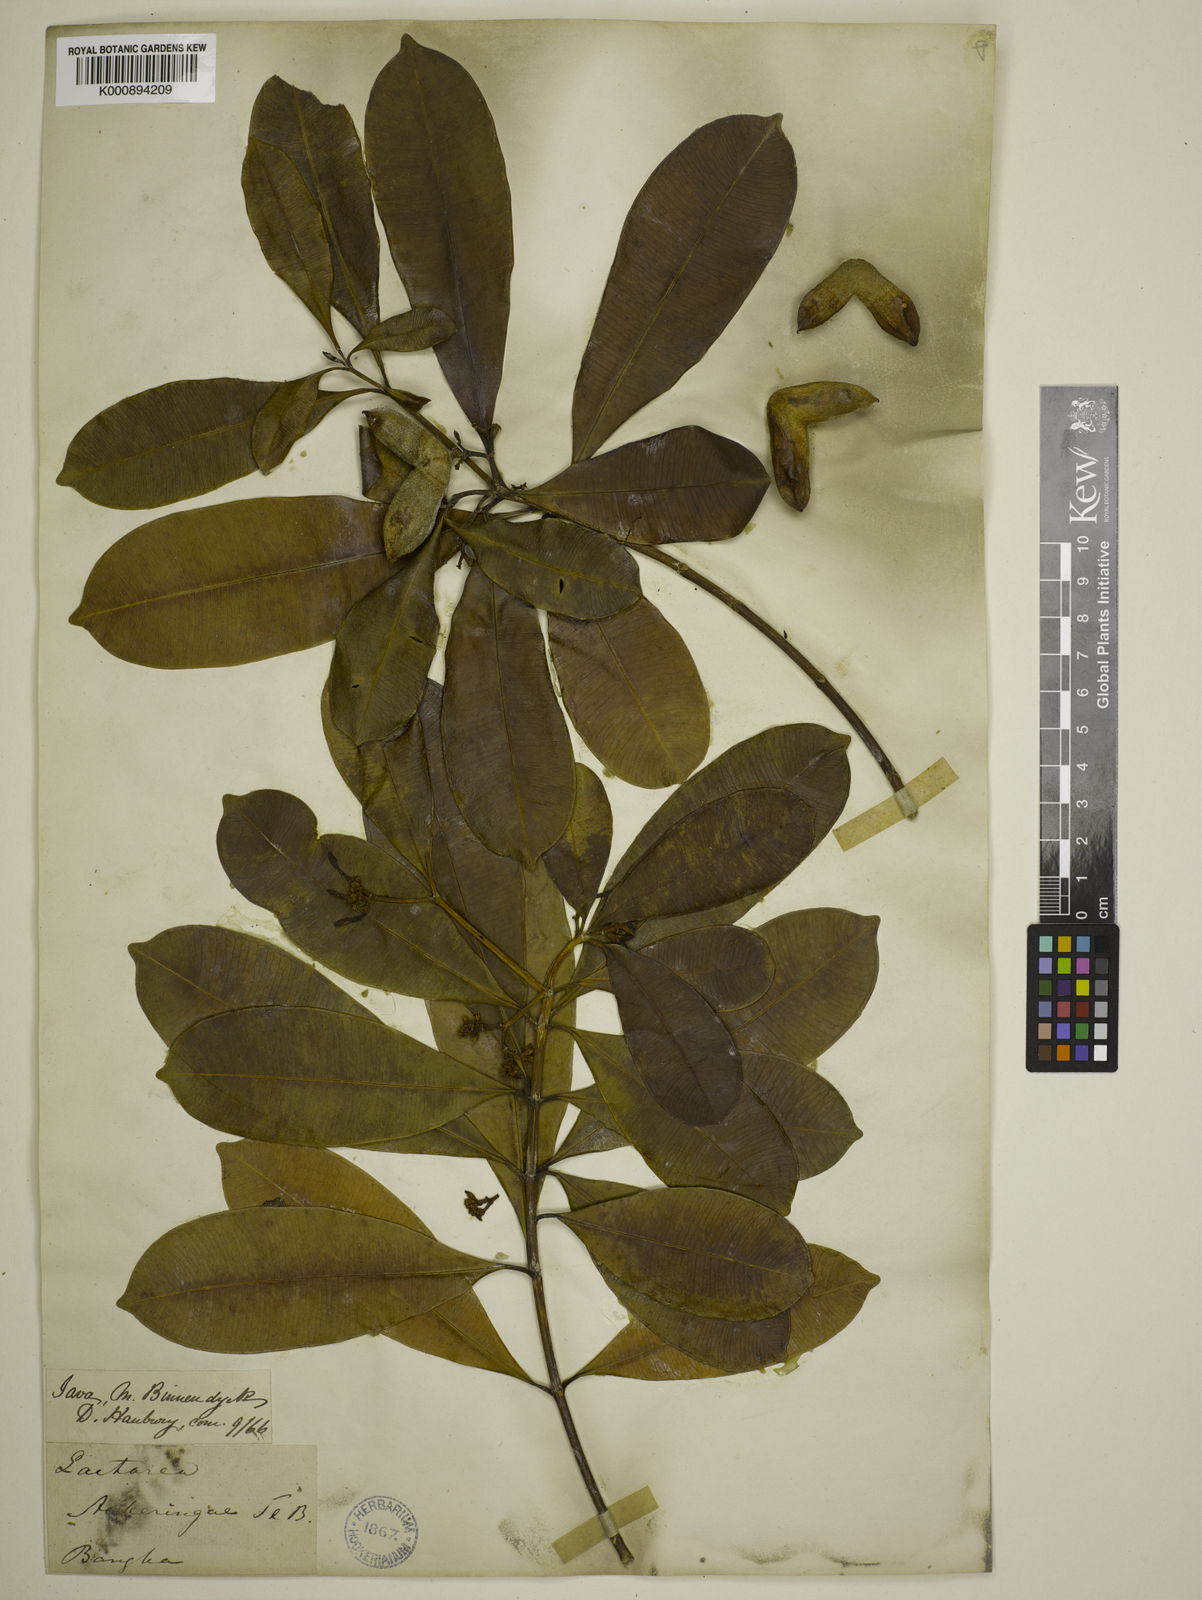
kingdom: Plantae
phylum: Tracheophyta
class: Magnoliopsida
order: Gentianales
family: Apocynaceae
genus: Ochrosia
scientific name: Ochrosia ackeringae
